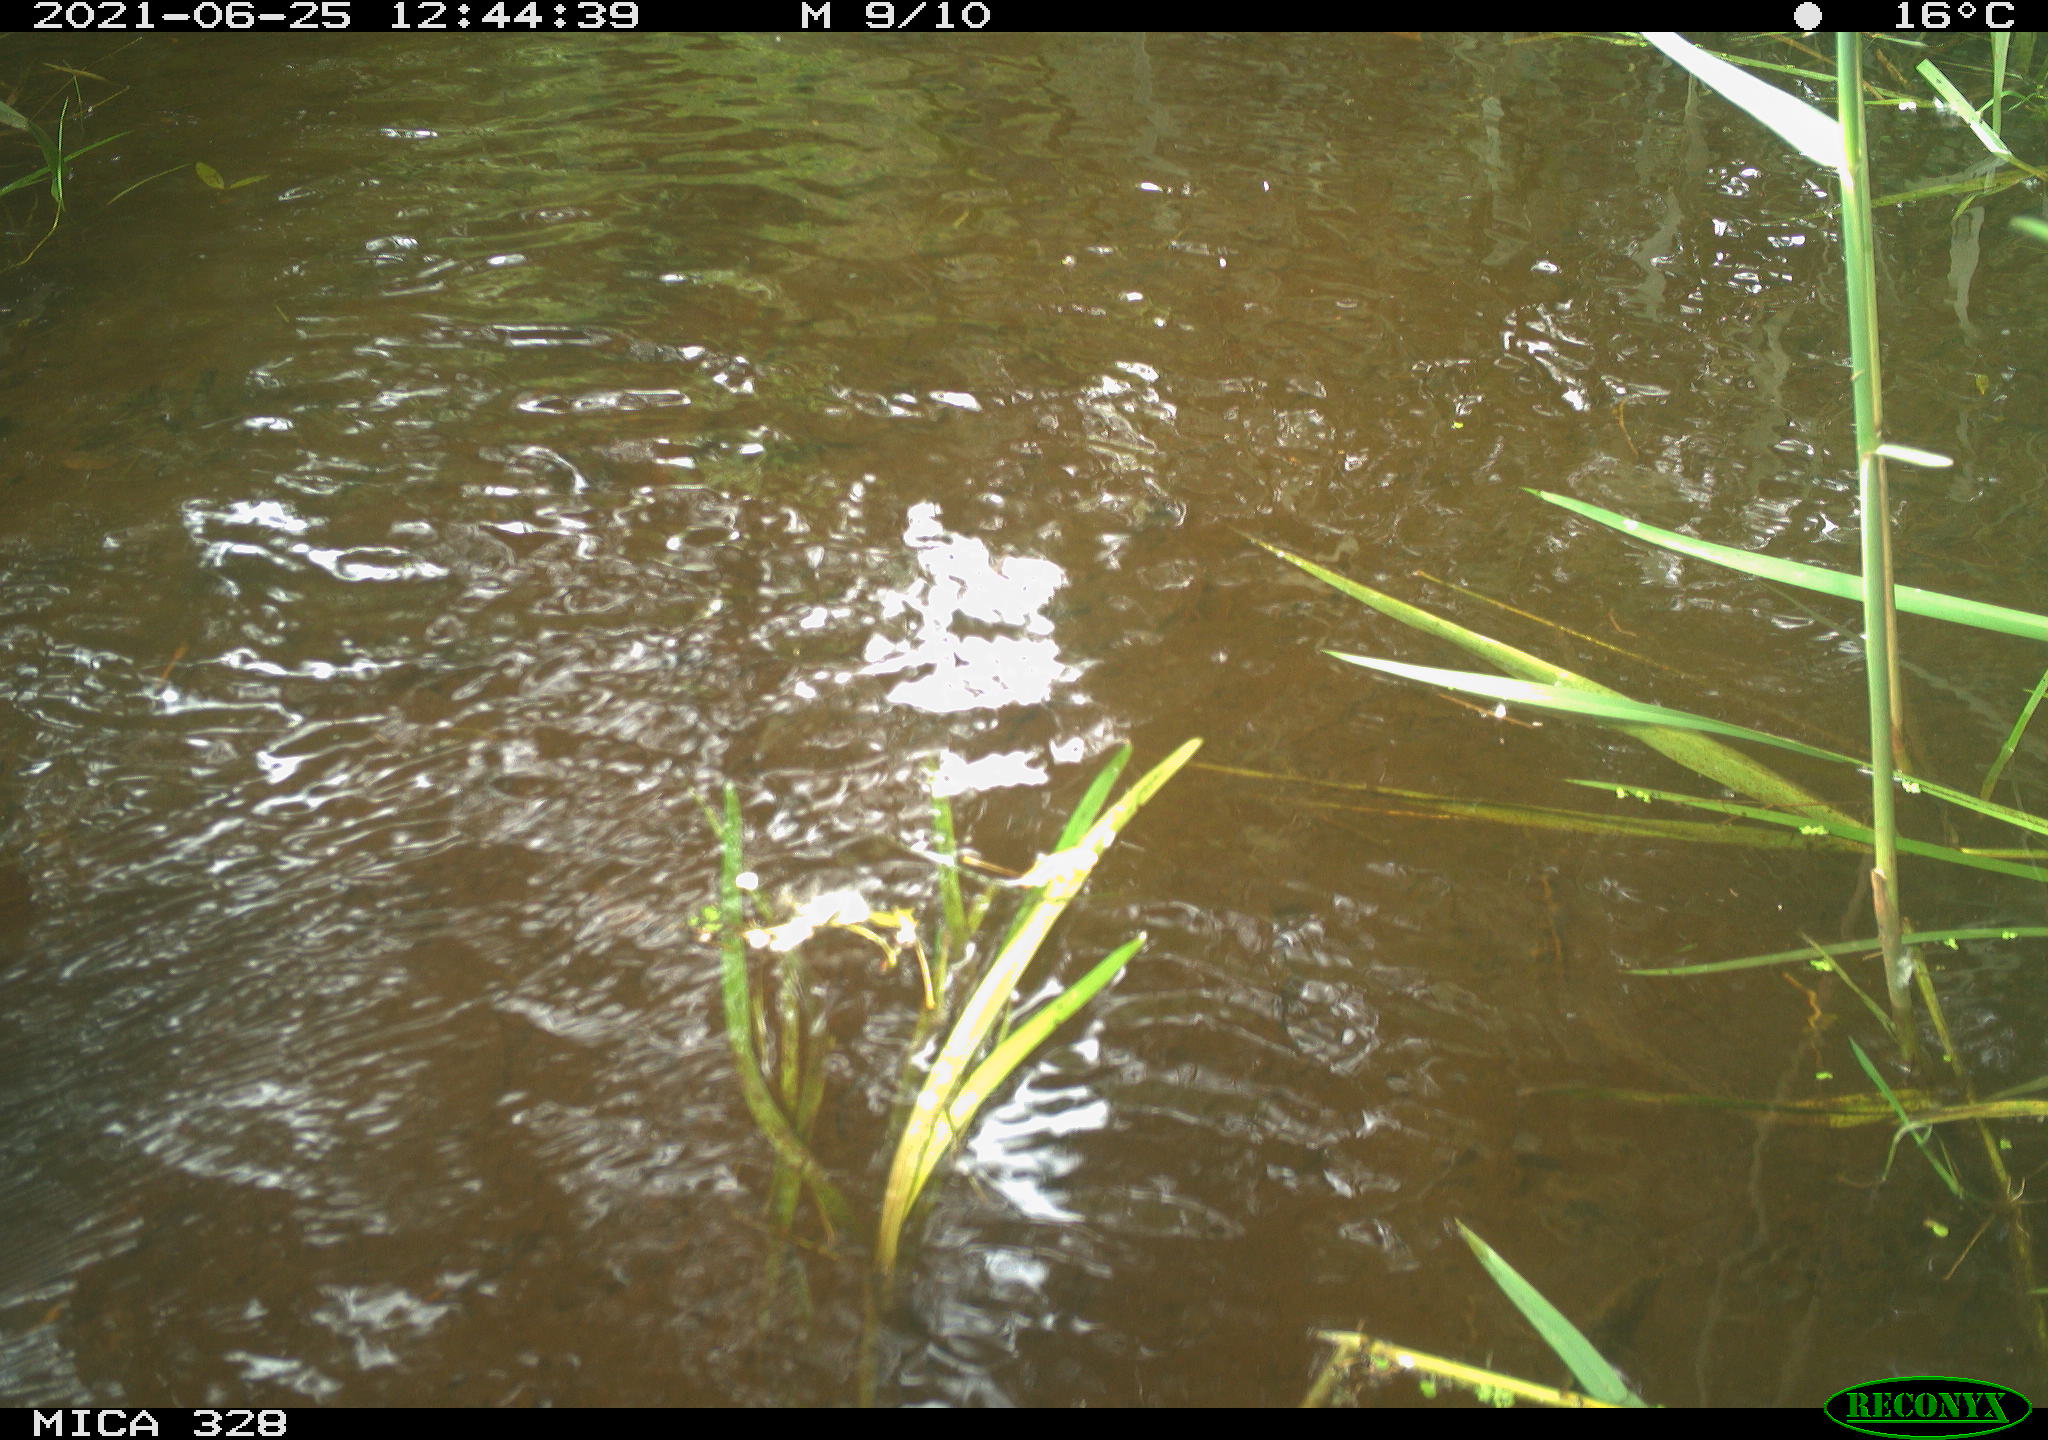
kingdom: Animalia
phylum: Chordata
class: Aves
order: Anseriformes
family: Anatidae
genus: Aix
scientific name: Aix galericulata
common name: Mandarin duck
